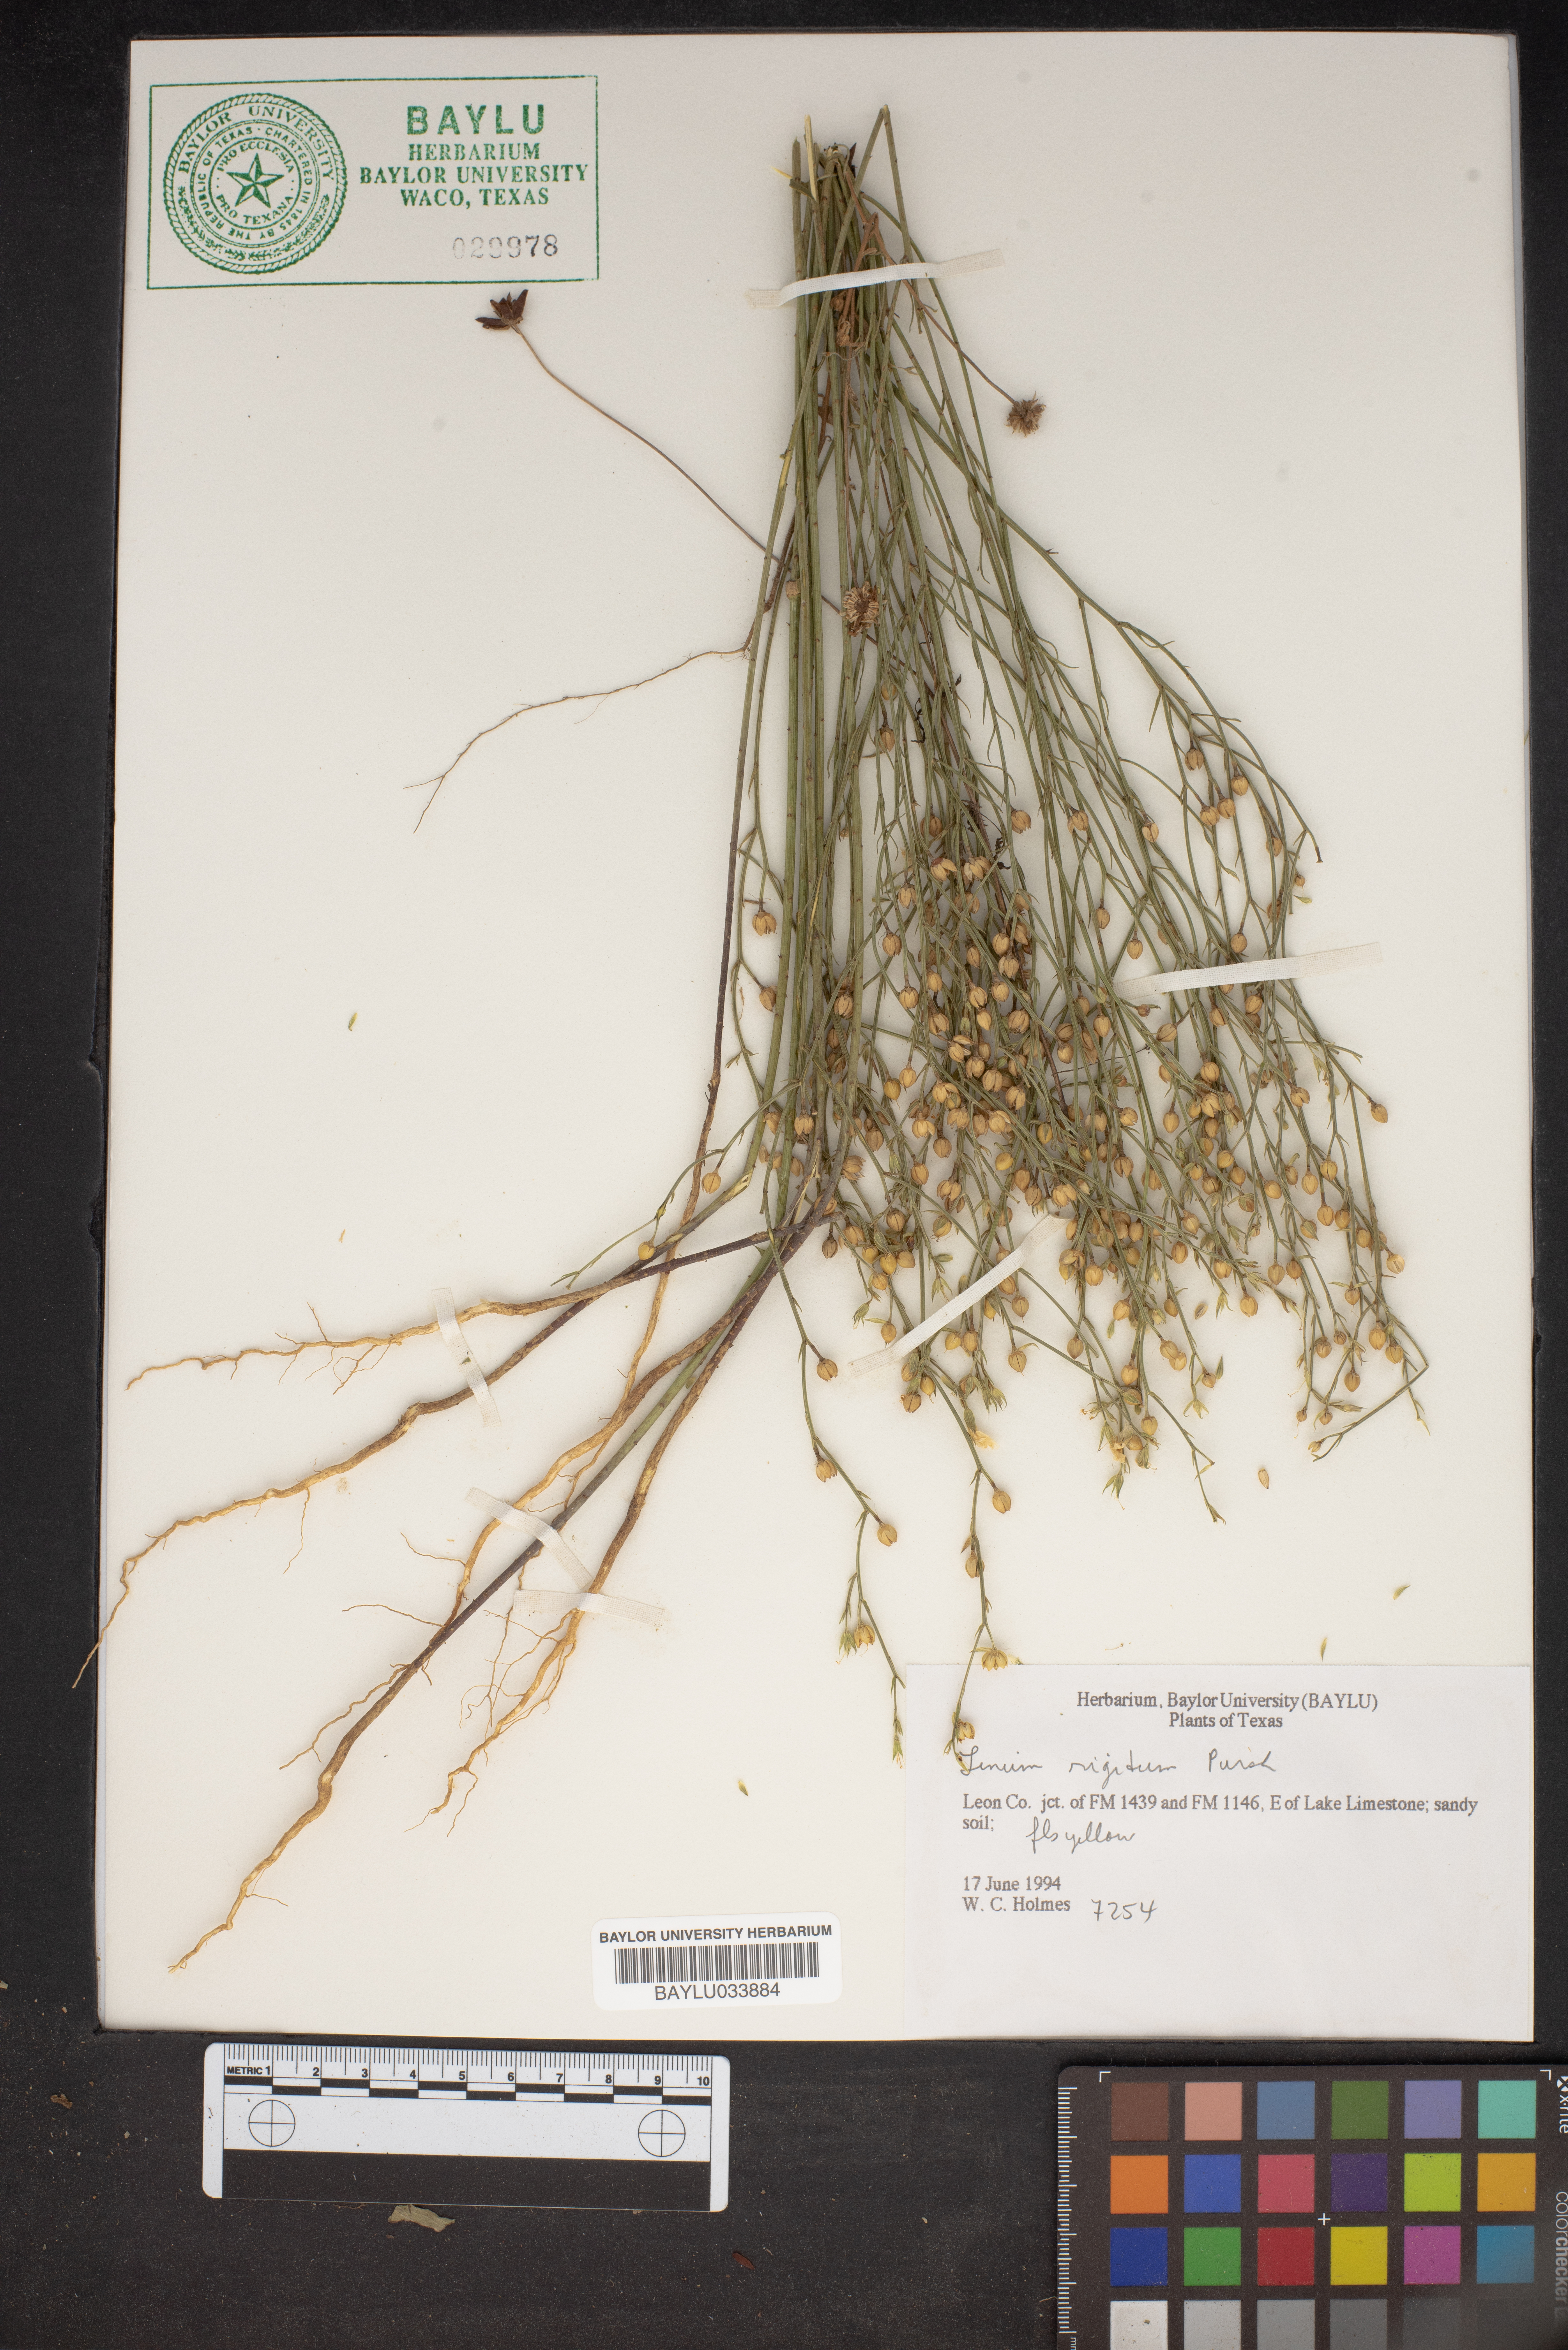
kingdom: Plantae
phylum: Tracheophyta
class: Magnoliopsida
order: Malpighiales
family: Linaceae
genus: Linum
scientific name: Linum rigidum
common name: Stiff-stem flax
